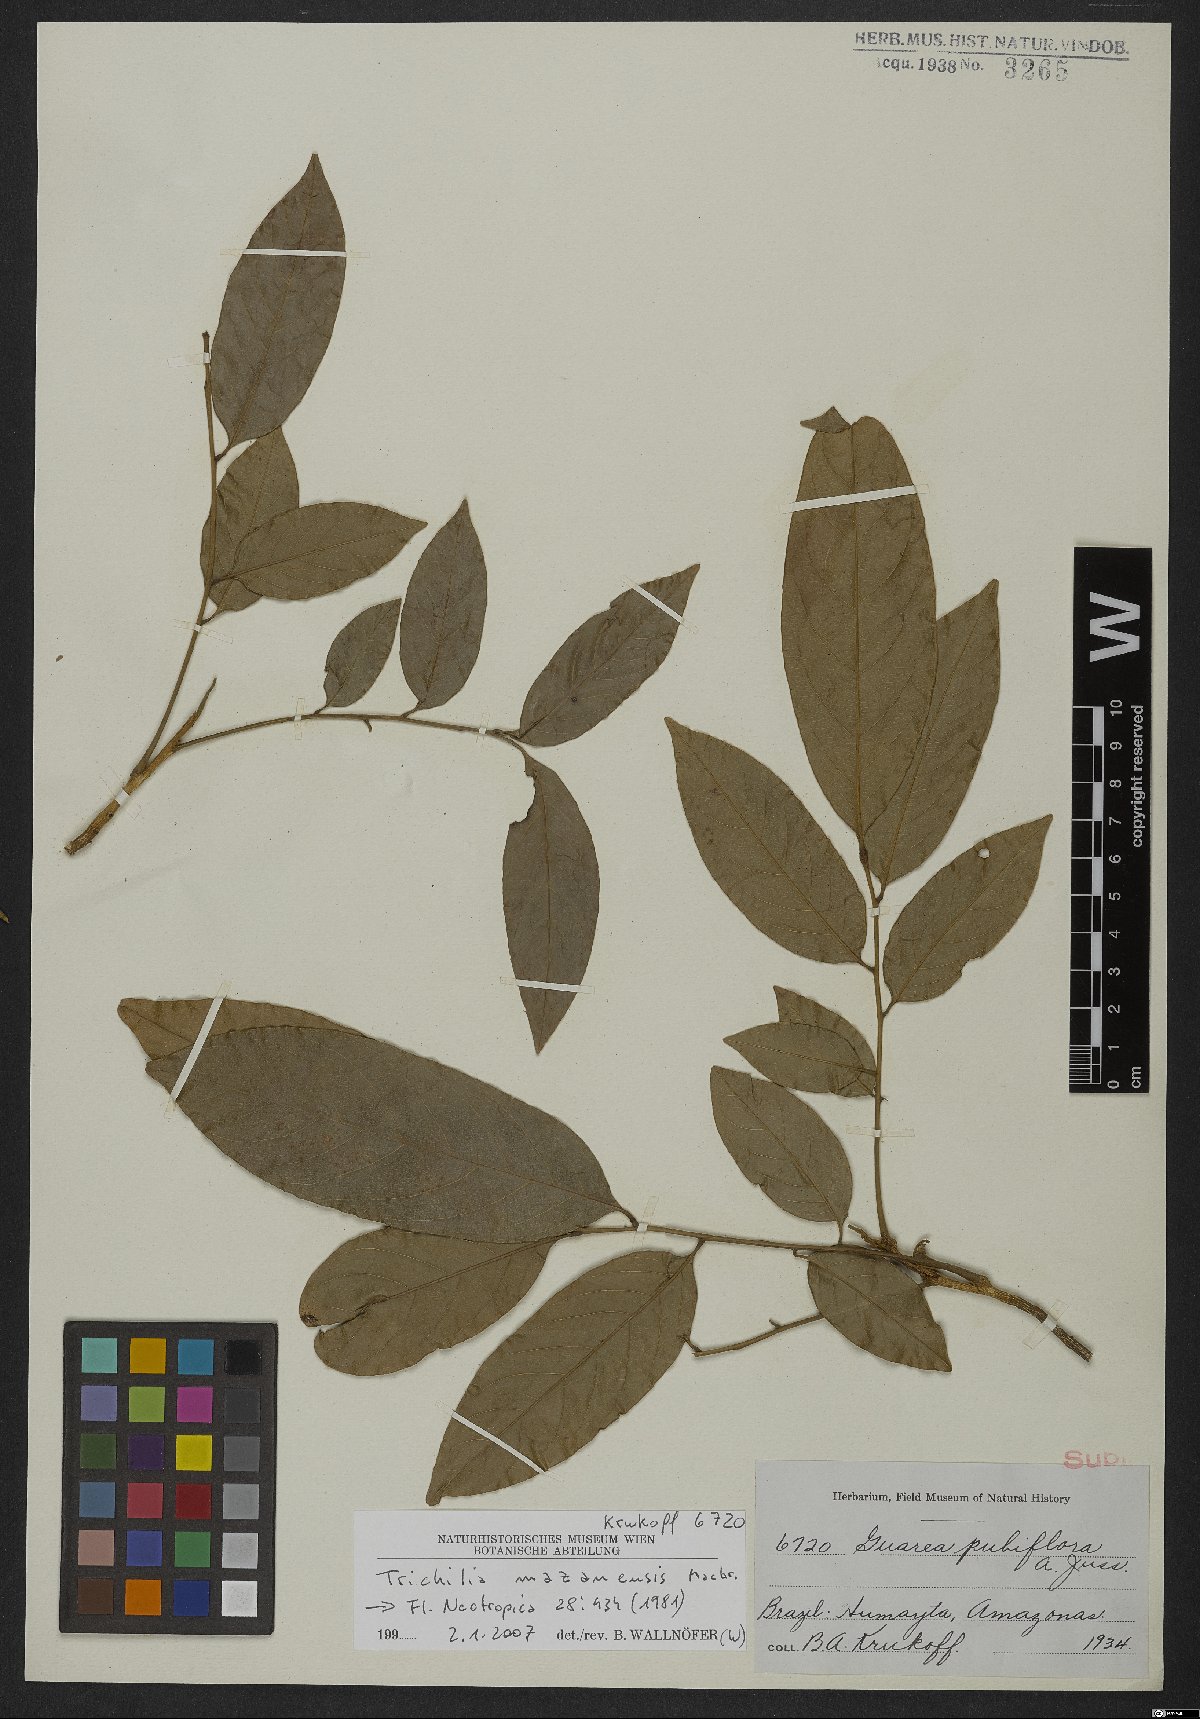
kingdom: Plantae
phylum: Tracheophyta
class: Magnoliopsida
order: Sapindales
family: Meliaceae
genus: Trichilia
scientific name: Trichilia mazanensis
